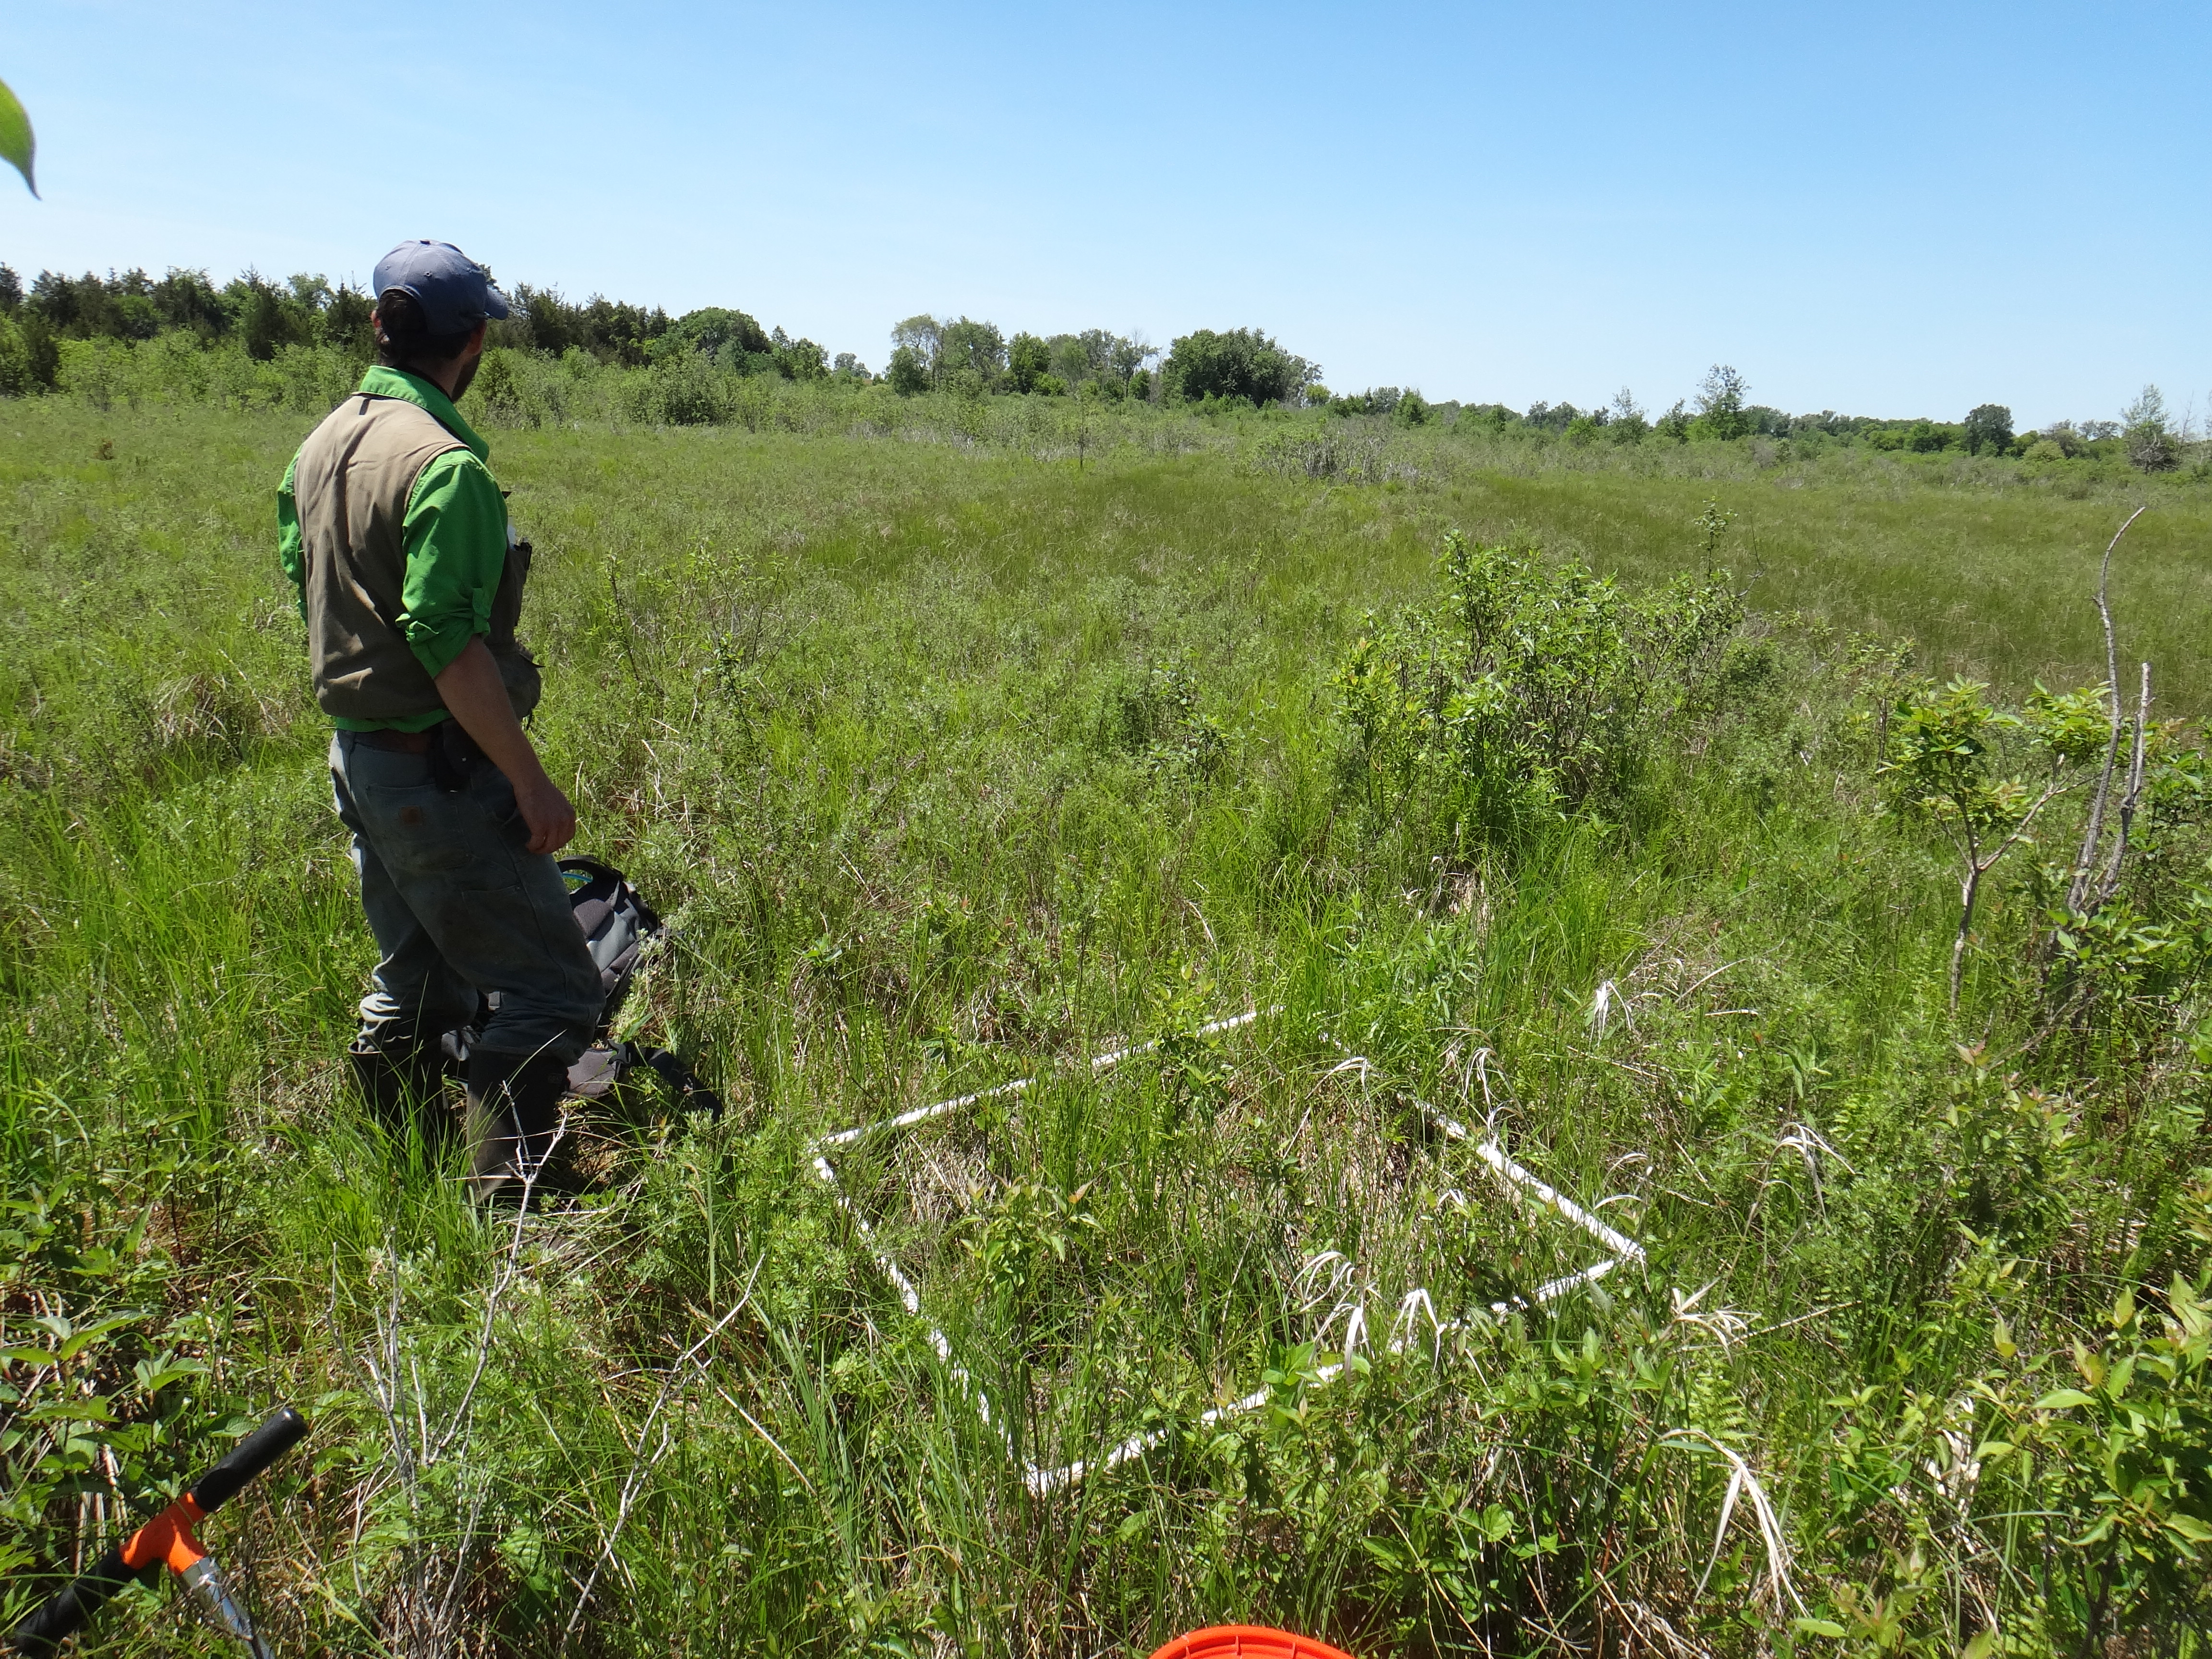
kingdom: Plantae
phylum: Tracheophyta
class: Magnoliopsida
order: Asterales
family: Campanulaceae
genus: Palustricodon
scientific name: Palustricodon aparinoides
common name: Bedstraw bellflower
